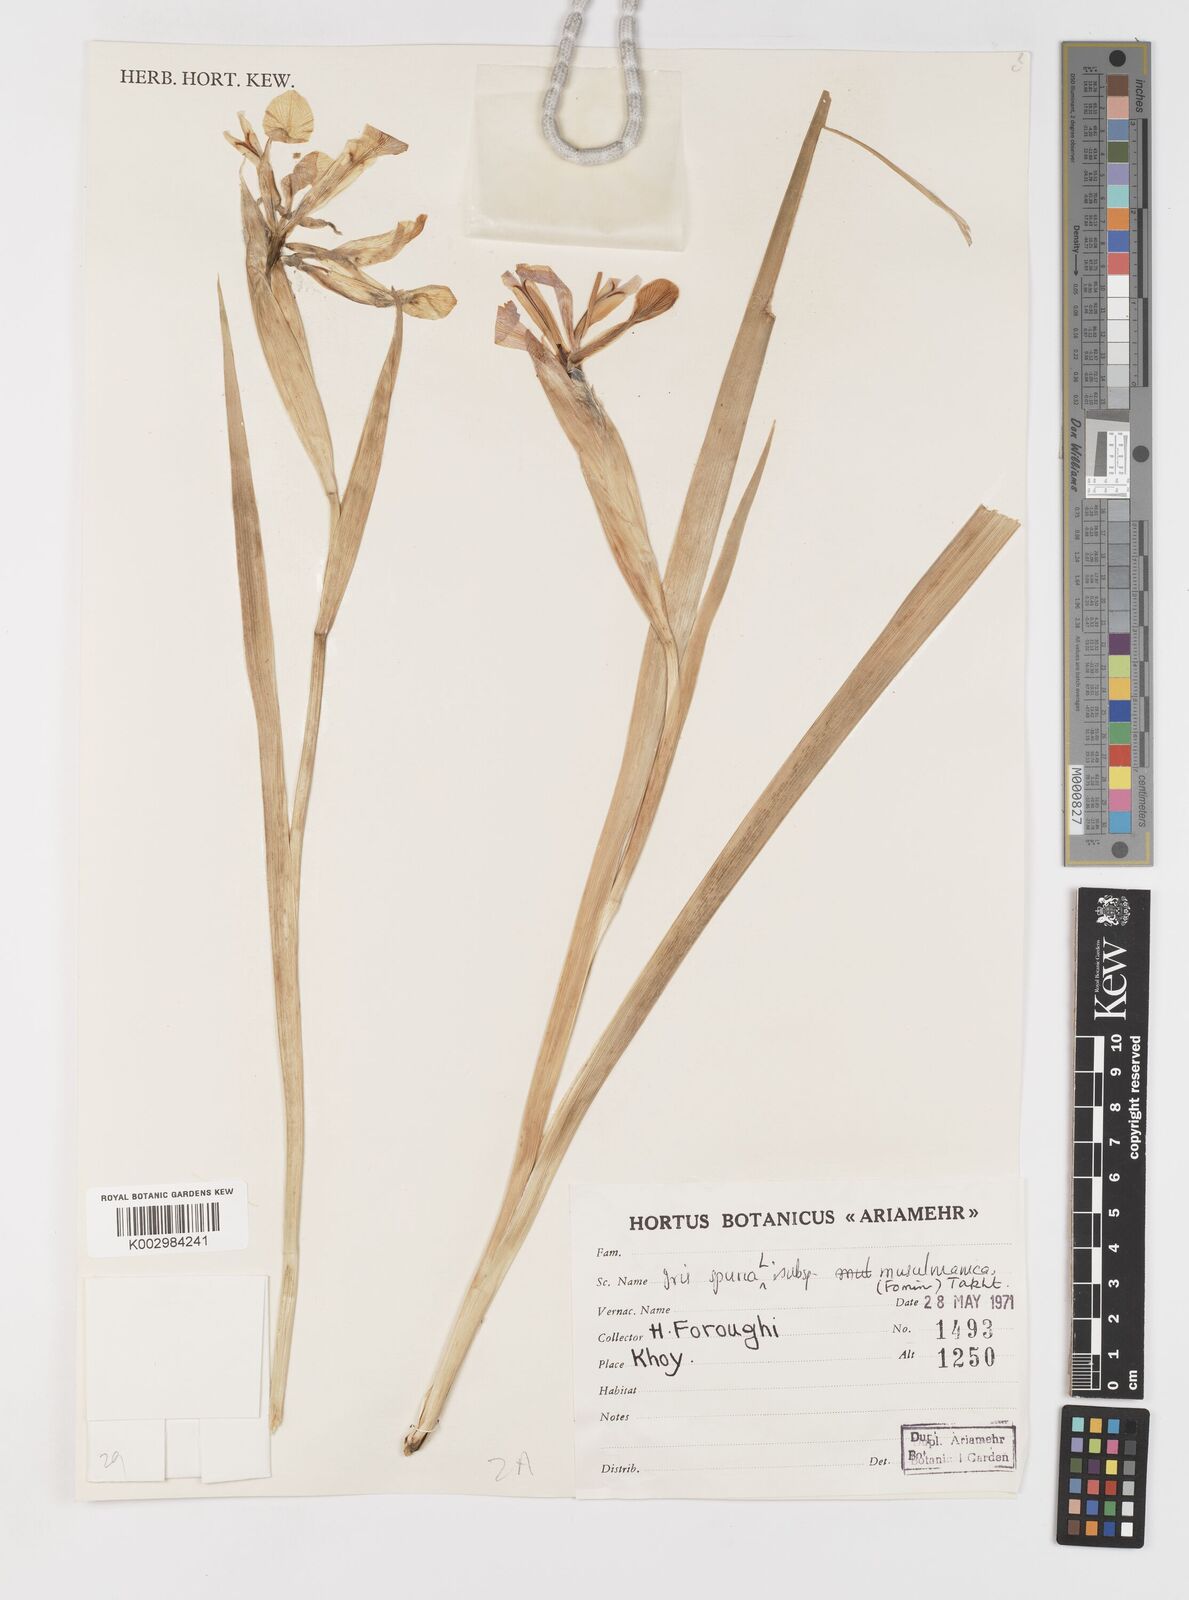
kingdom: Plantae
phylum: Tracheophyta
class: Liliopsida
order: Asparagales
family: Iridaceae
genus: Iris
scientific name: Iris spuria
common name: Blue iris
